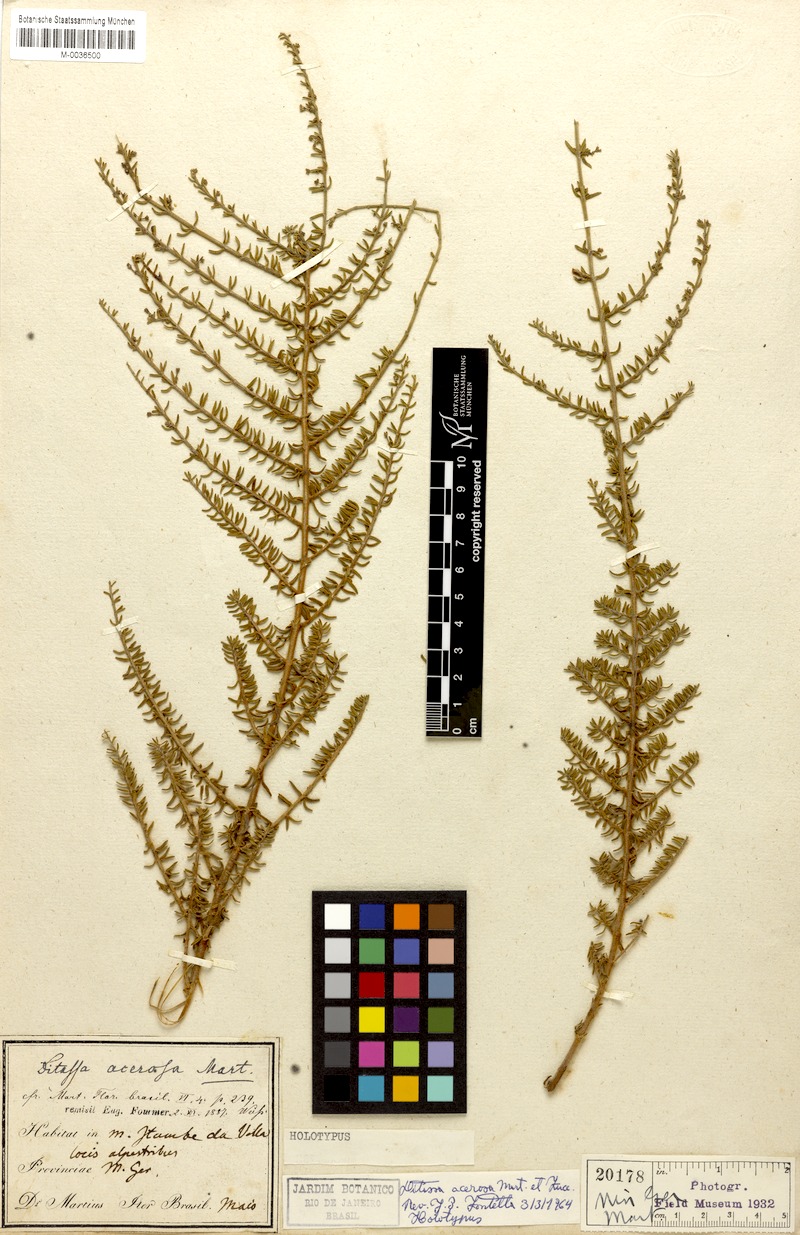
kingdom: Plantae
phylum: Tracheophyta
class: Magnoliopsida
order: Gentianales
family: Apocynaceae
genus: Minaria
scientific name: Minaria acerosa
